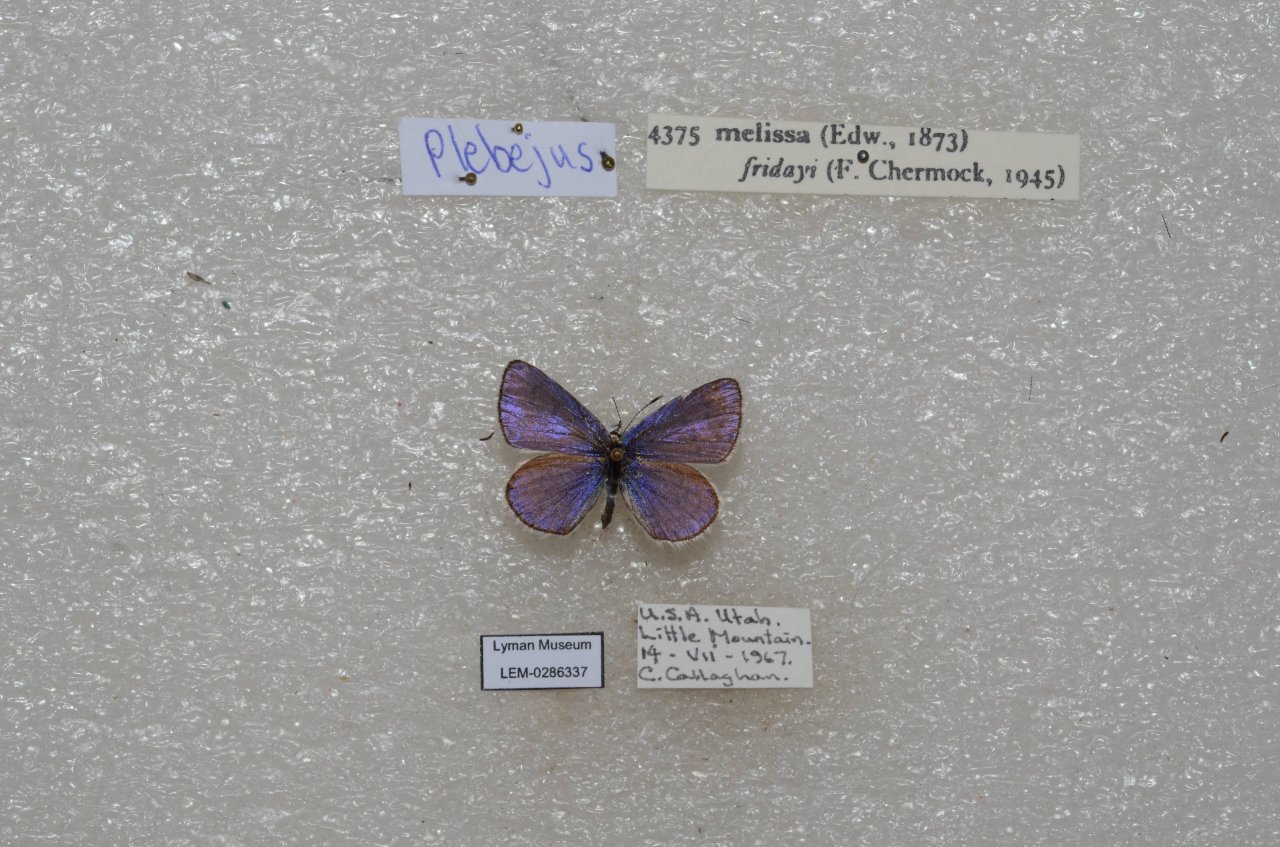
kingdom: Animalia
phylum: Arthropoda
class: Insecta
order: Lepidoptera
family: Lycaenidae
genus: Lycaeides
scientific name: Lycaeides melissa
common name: Melissa Blue
